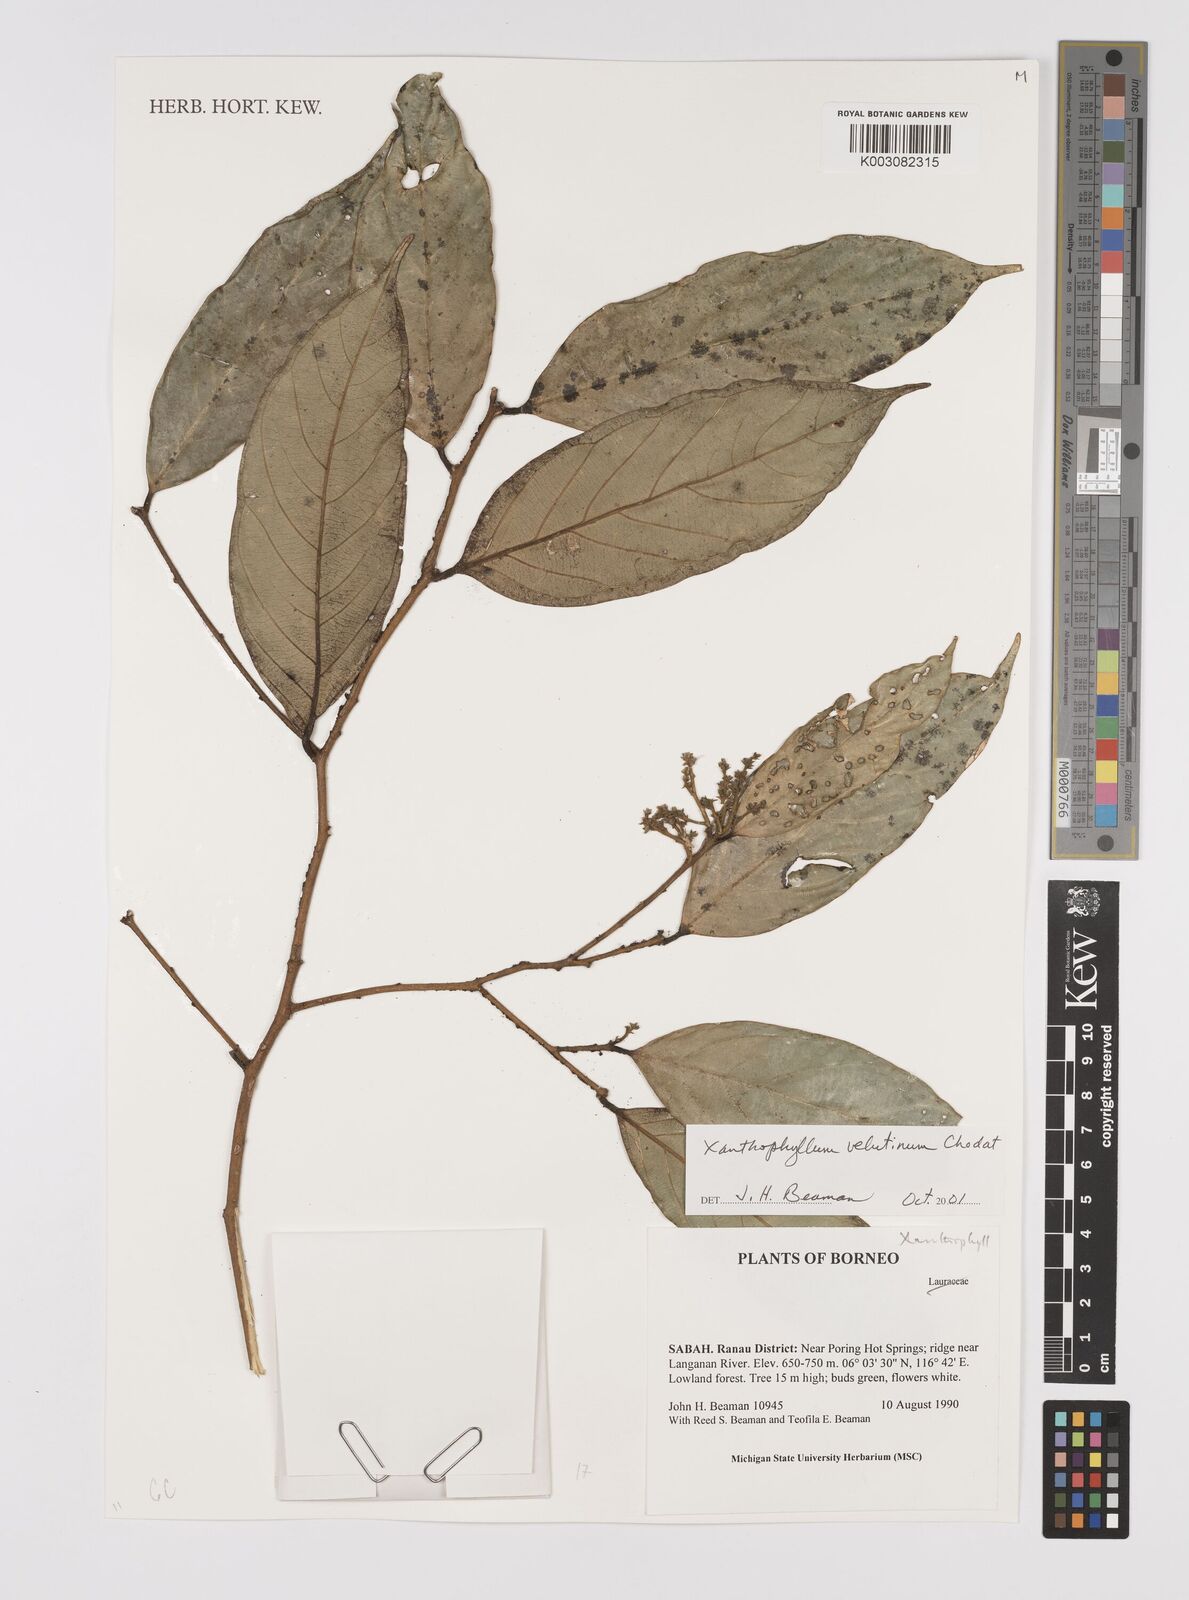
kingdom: Plantae
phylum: Tracheophyta
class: Magnoliopsida
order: Fabales
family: Polygalaceae
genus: Xanthophyllum
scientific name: Xanthophyllum velutinum
